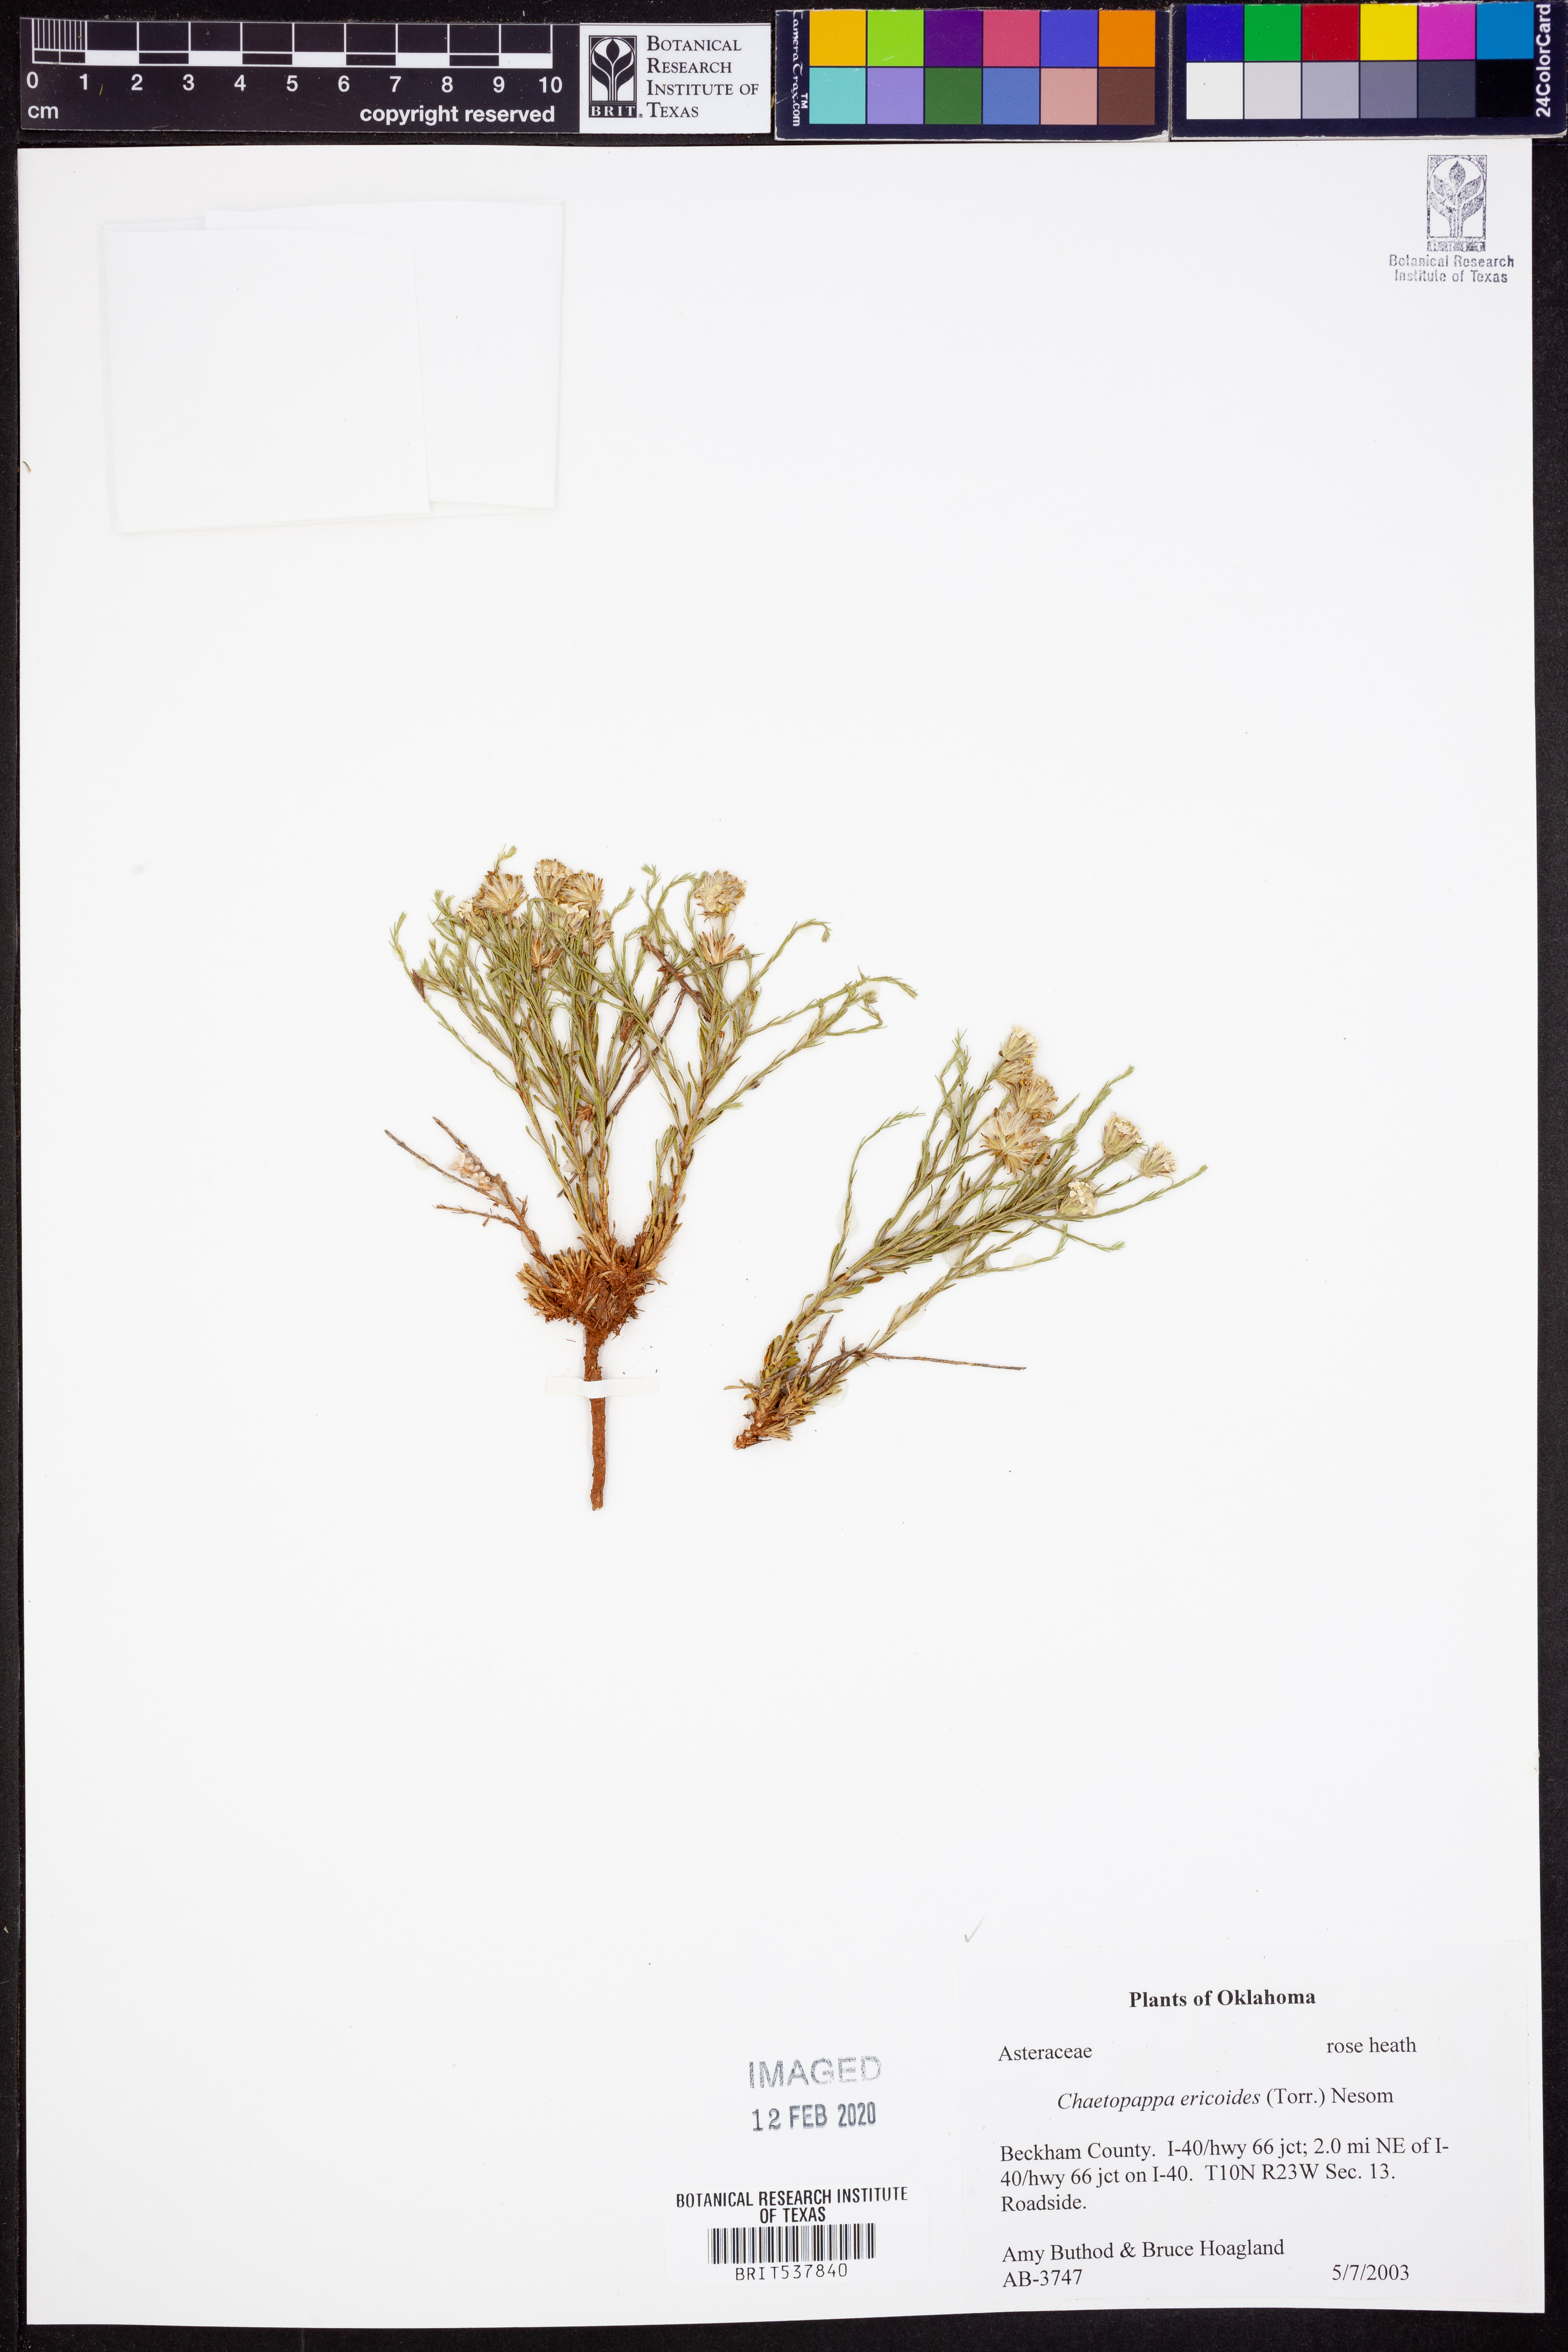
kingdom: Plantae
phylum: Tracheophyta
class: Magnoliopsida
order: Asterales
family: Asteraceae
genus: Chaetopappa
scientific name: Chaetopappa ericoides
